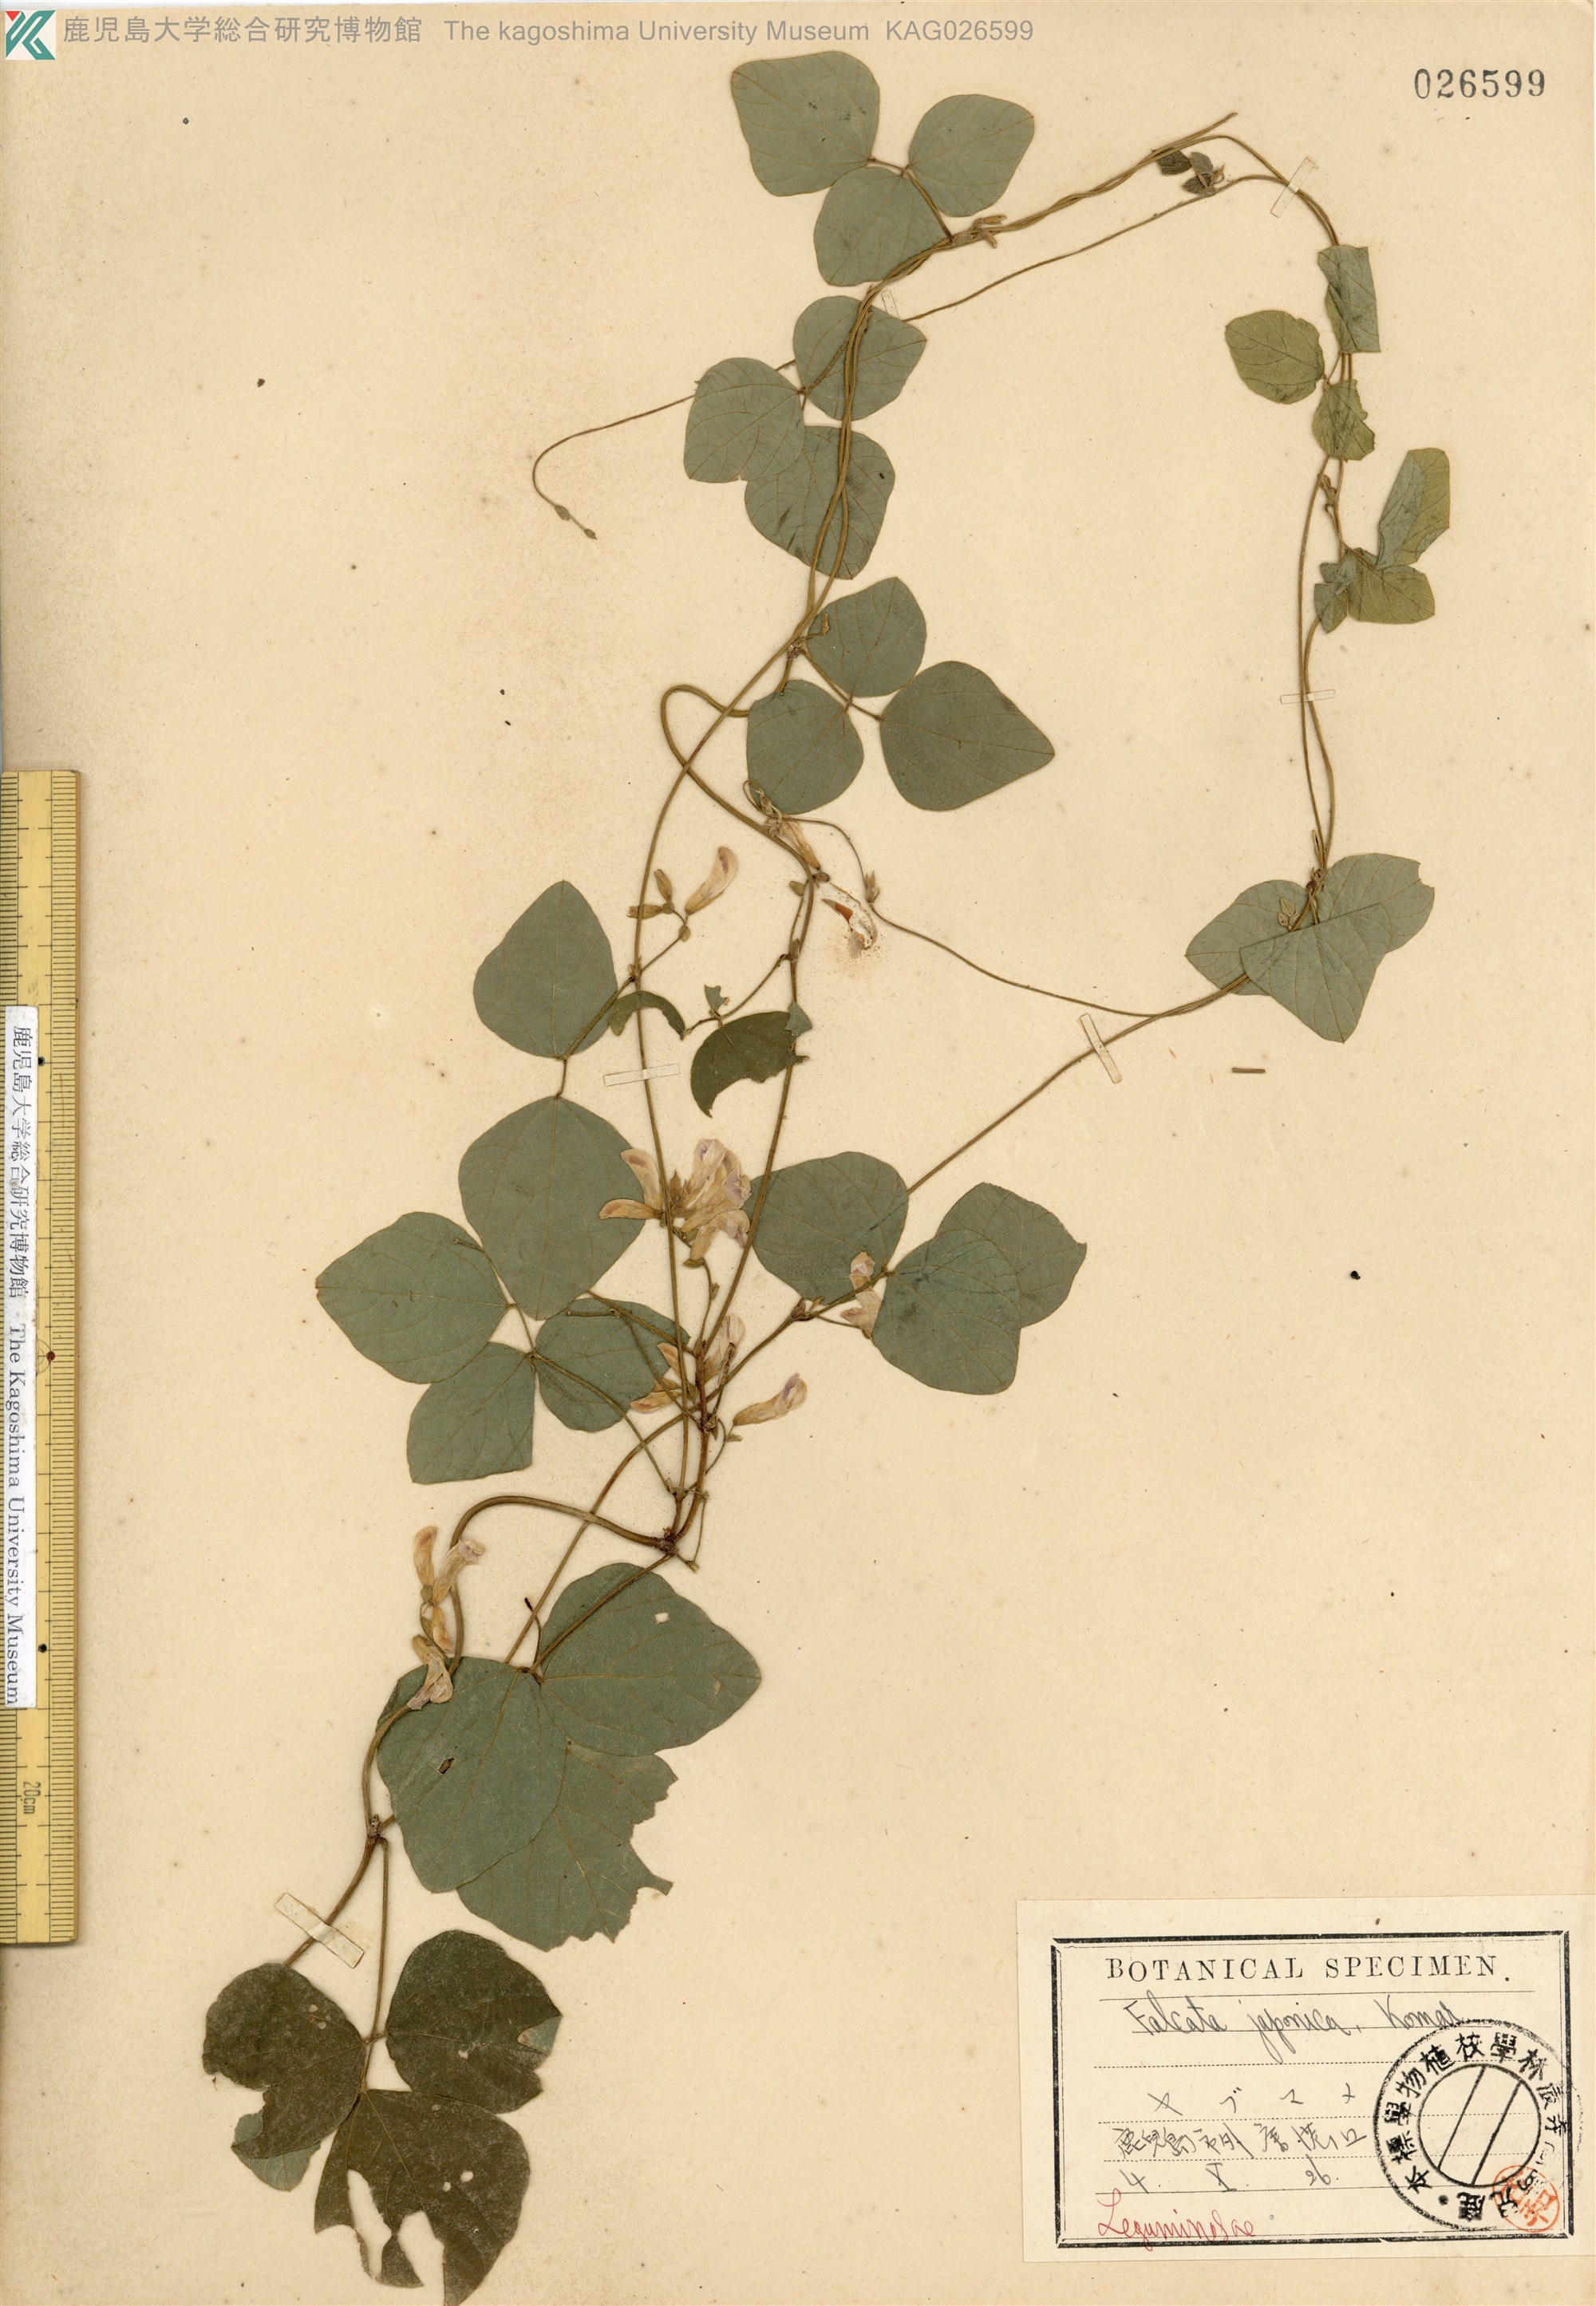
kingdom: Plantae
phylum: Tracheophyta
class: Magnoliopsida
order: Fabales
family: Fabaceae
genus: Amphicarpaea
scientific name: Amphicarpaea edgeworthii
